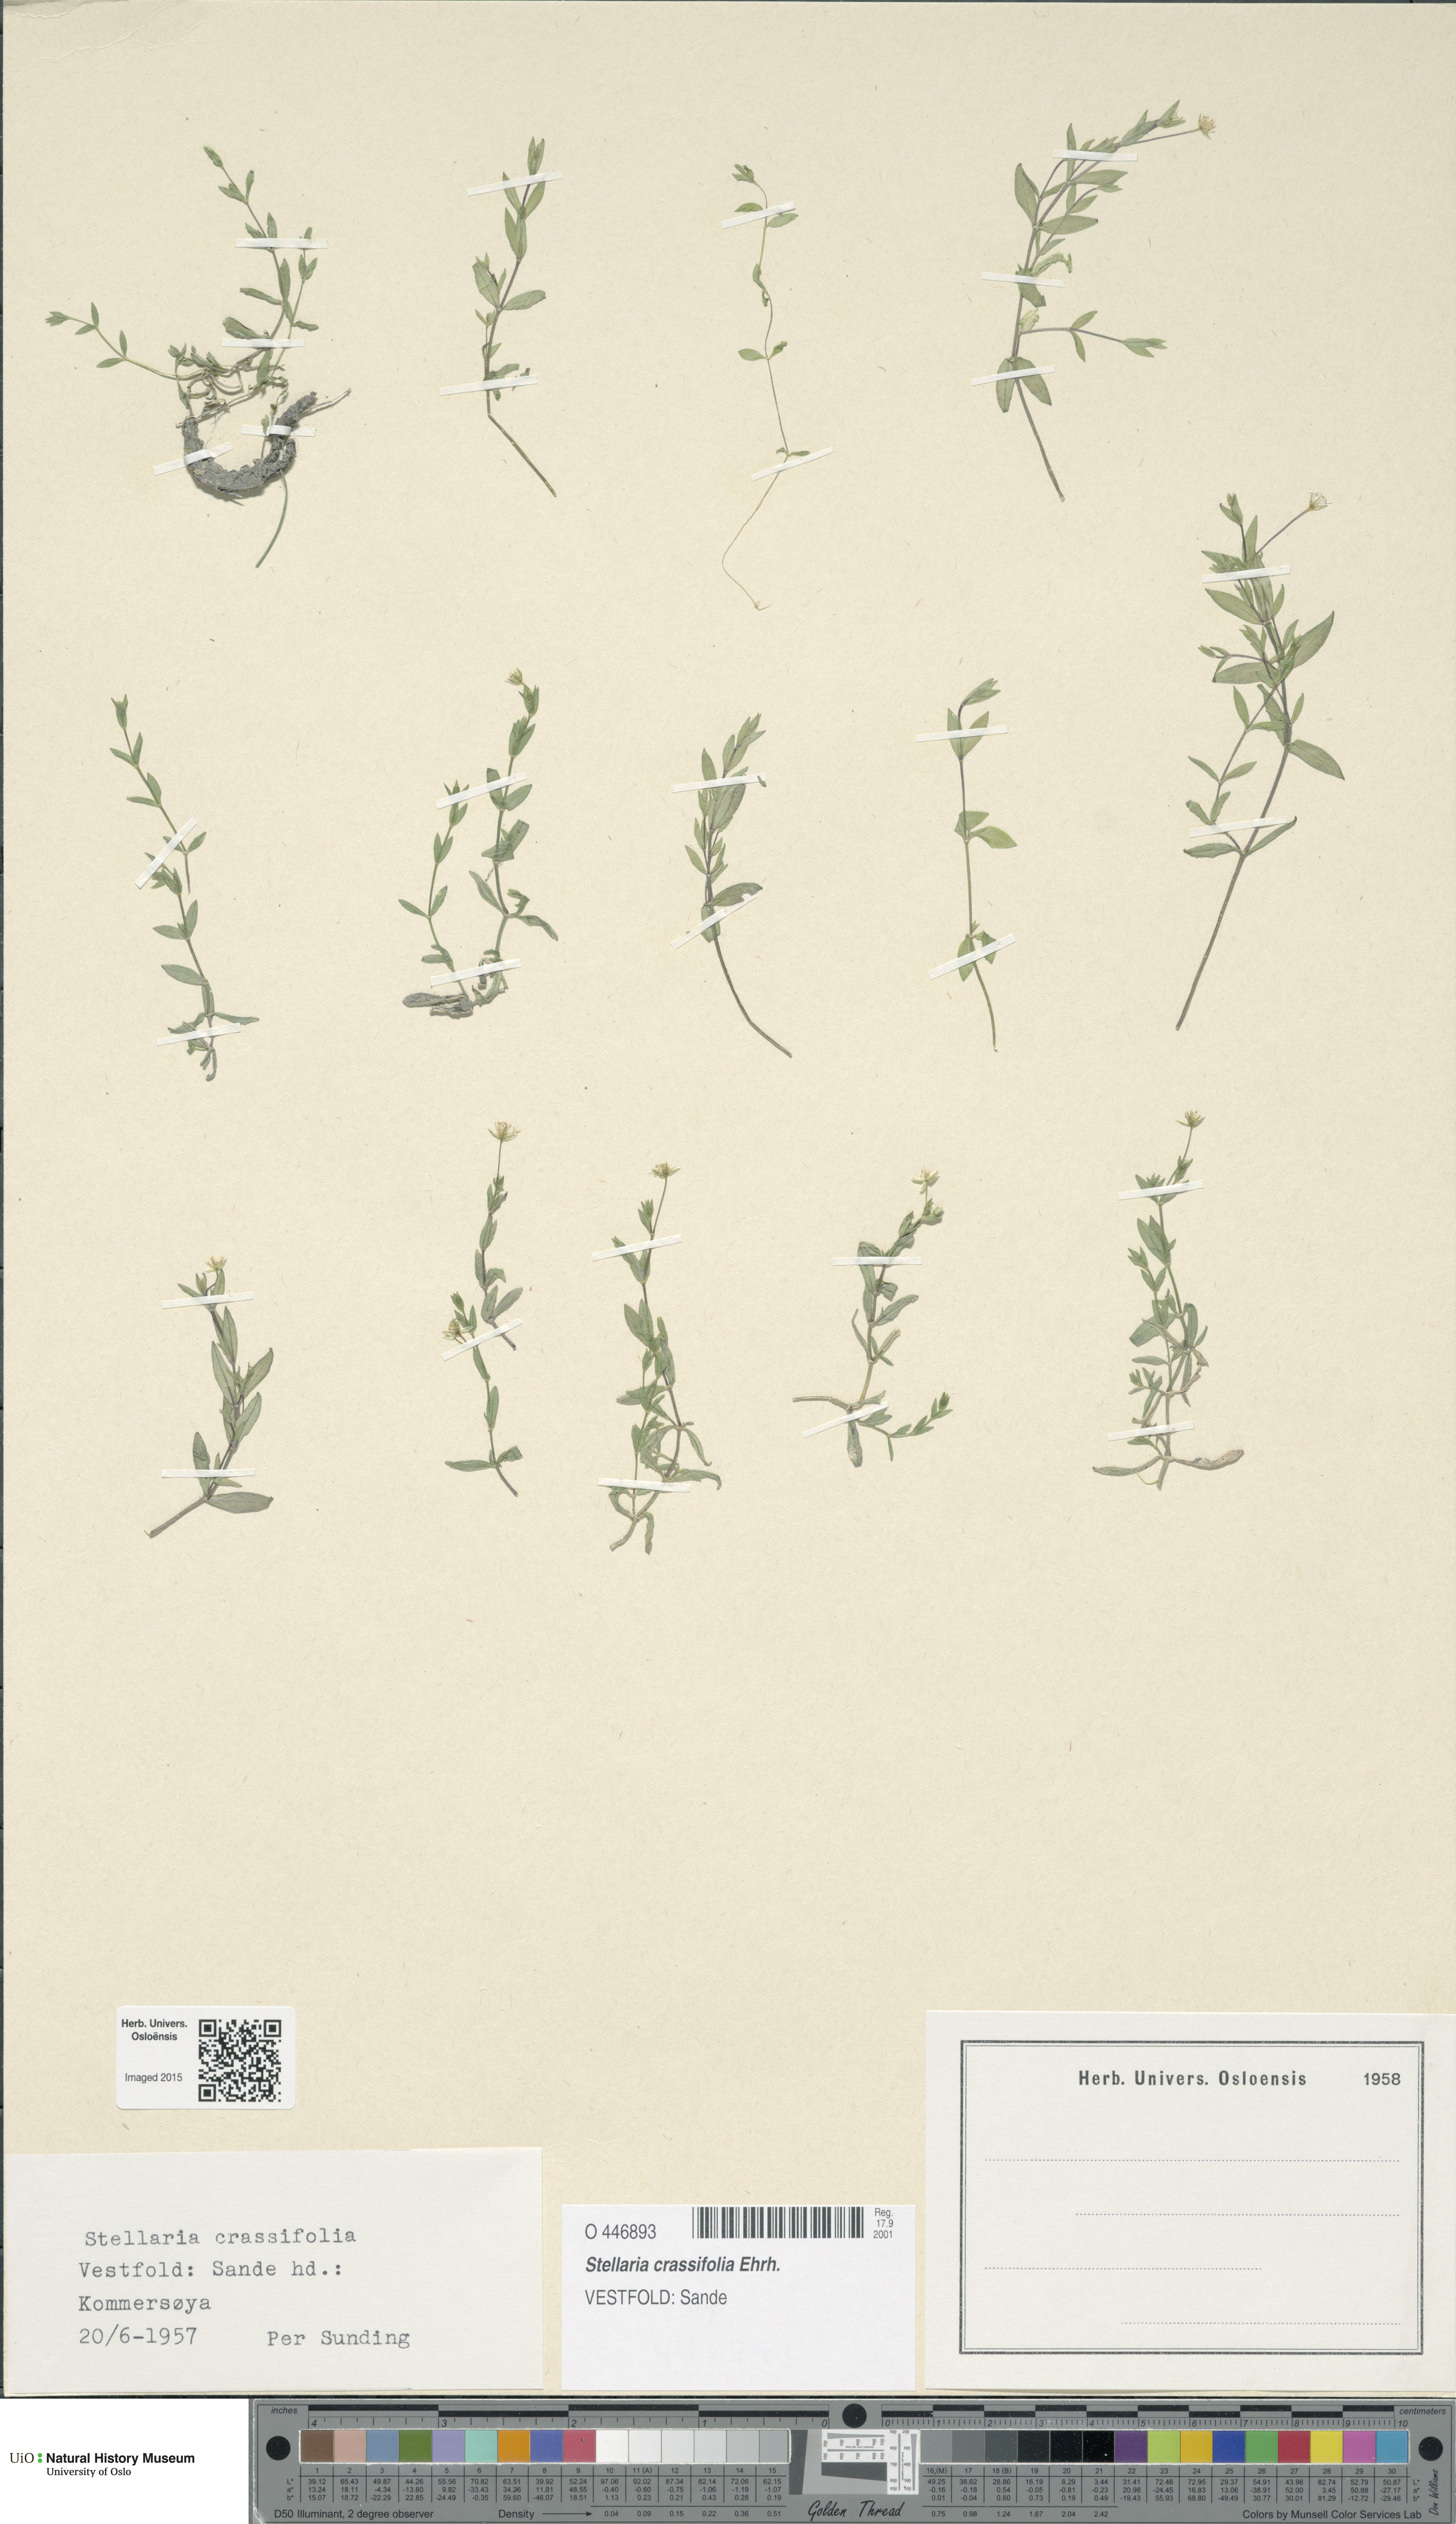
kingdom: Plantae
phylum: Tracheophyta
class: Magnoliopsida
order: Caryophyllales
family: Caryophyllaceae
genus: Stellaria
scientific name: Stellaria crassifolia
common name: Fleshy starwort
